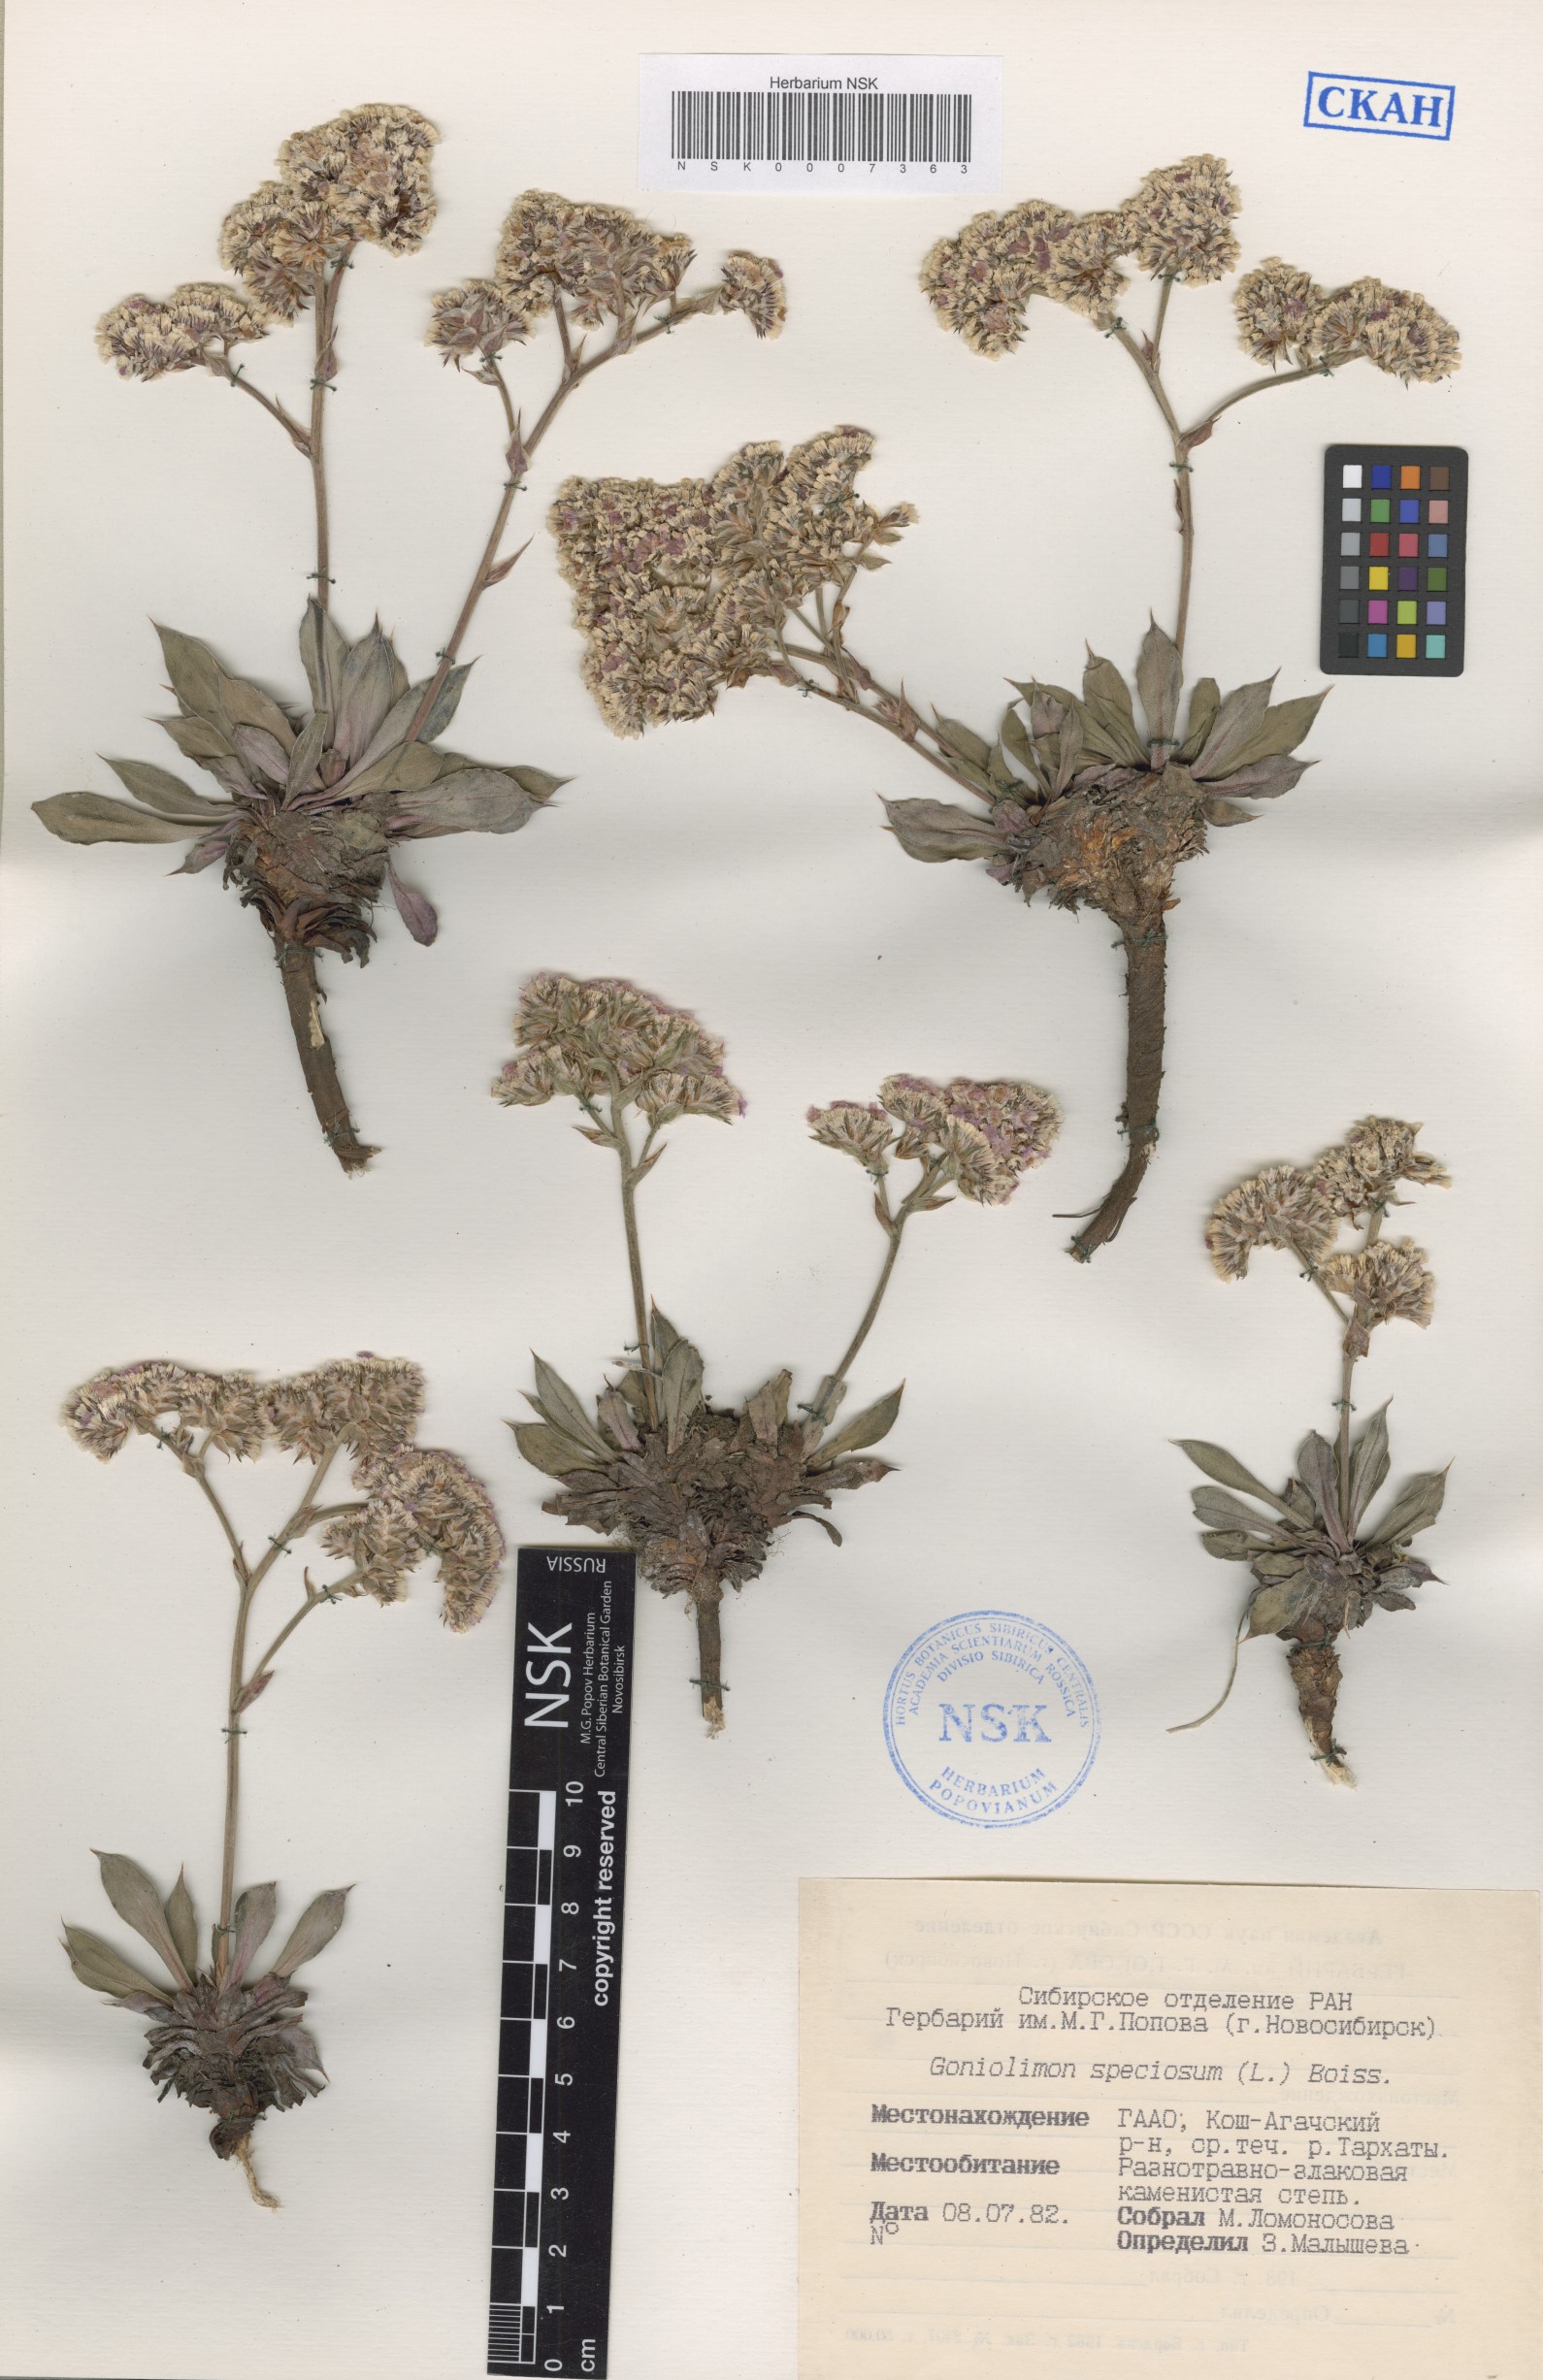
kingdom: Plantae
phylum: Tracheophyta
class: Magnoliopsida
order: Caryophyllales
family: Plumbaginaceae
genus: Goniolimon
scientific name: Goniolimon speciosum
